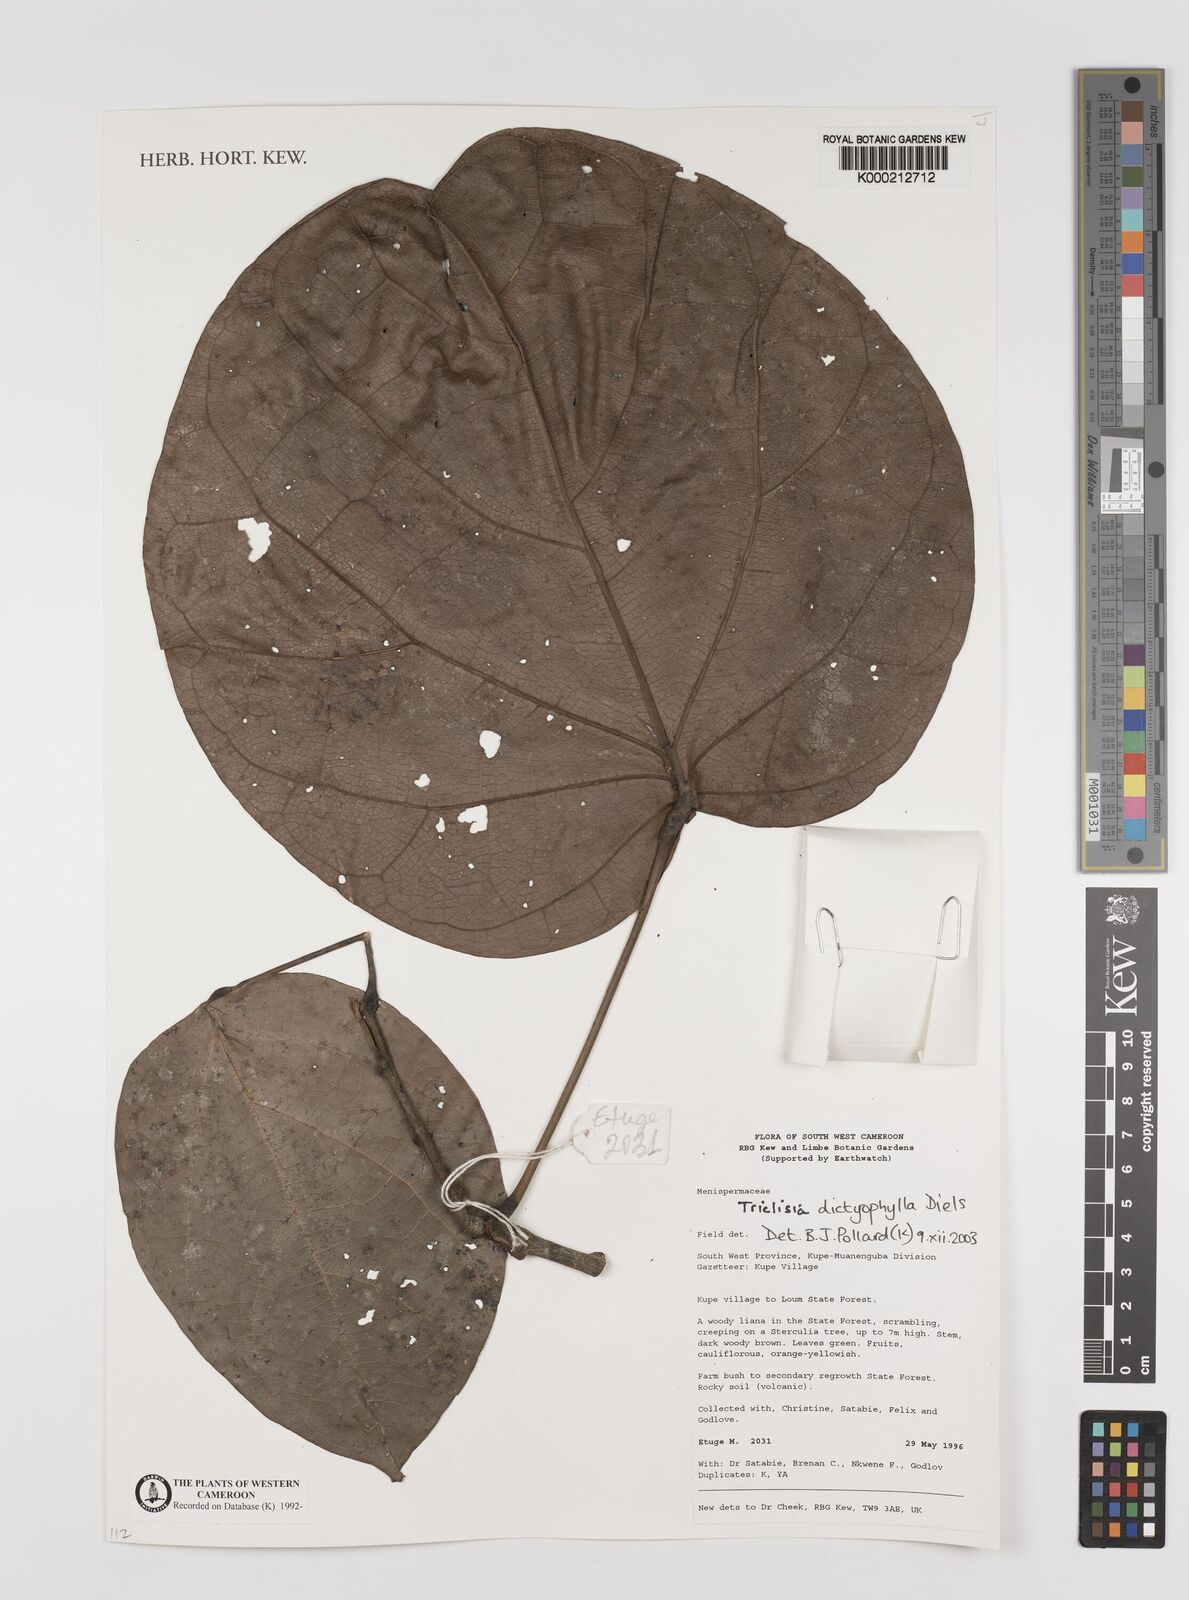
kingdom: Plantae
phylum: Tracheophyta
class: Magnoliopsida
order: Ranunculales
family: Menispermaceae
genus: Triclisia
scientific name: Triclisia dictyophylla
